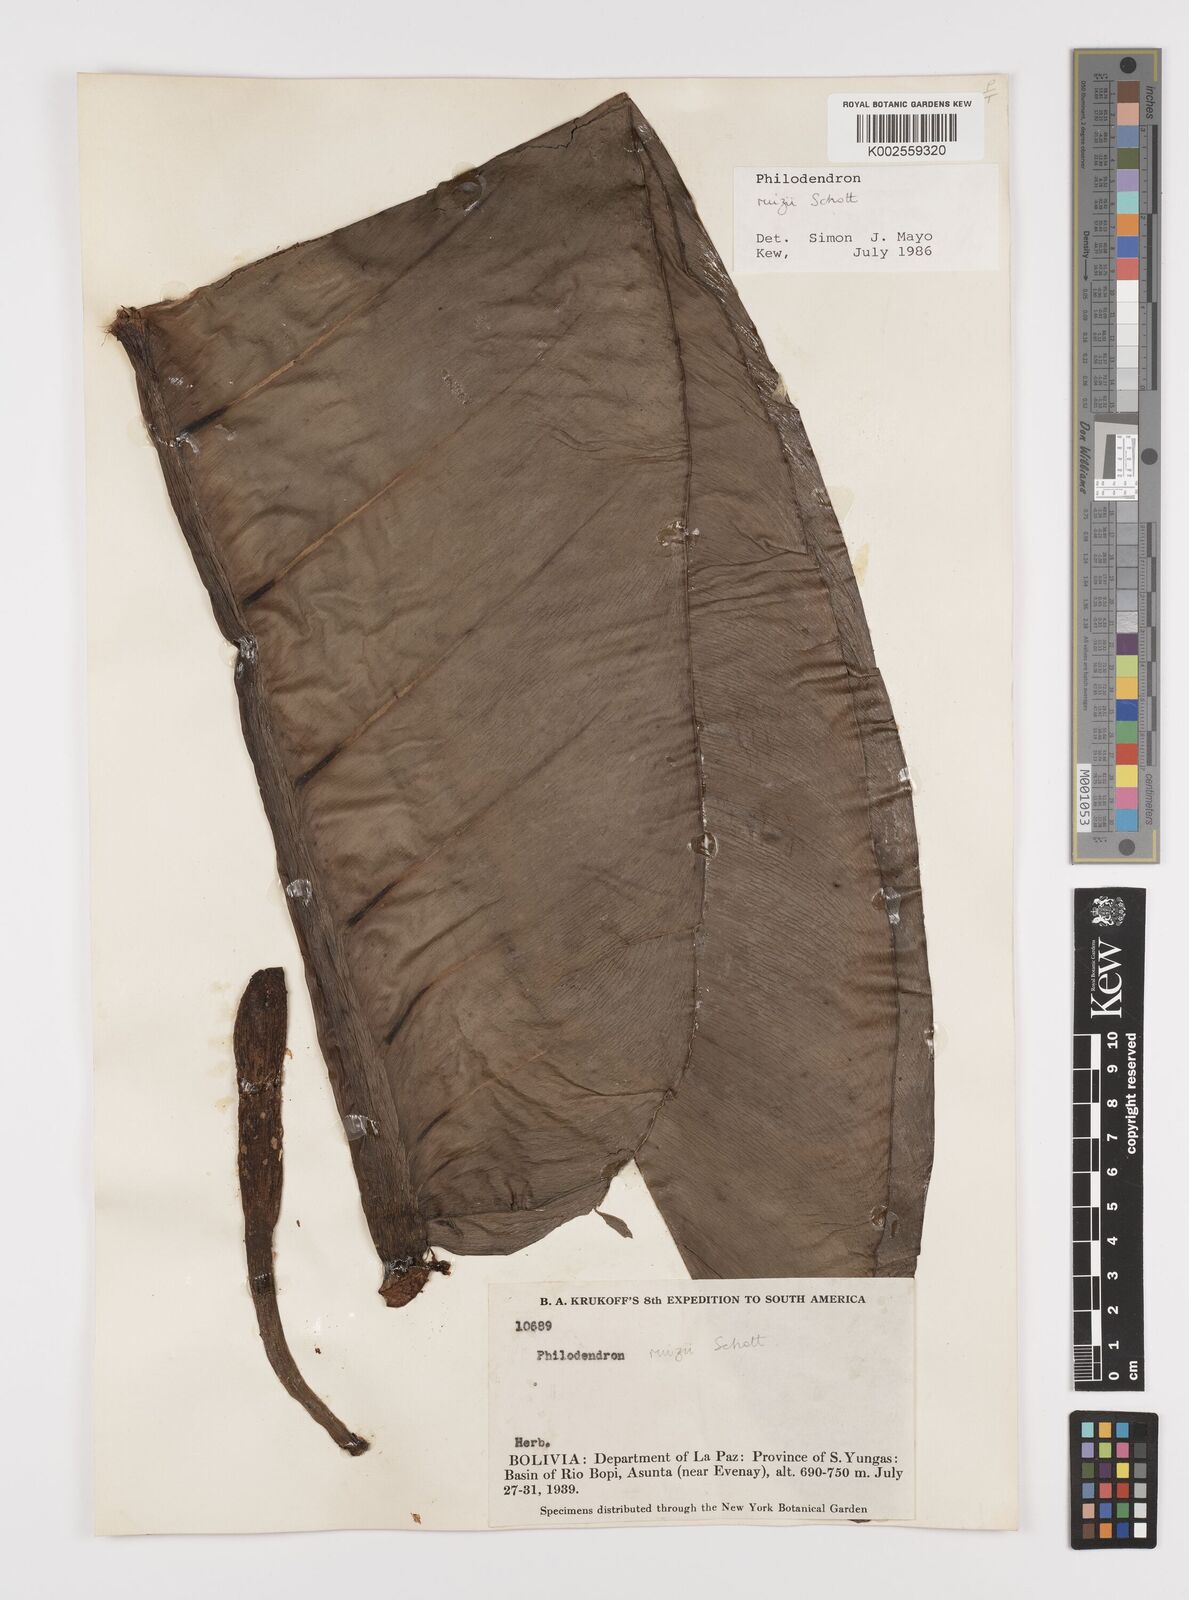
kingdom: Plantae
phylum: Tracheophyta
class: Liliopsida
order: Alismatales
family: Araceae
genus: Philodendron
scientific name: Philodendron ruizii
